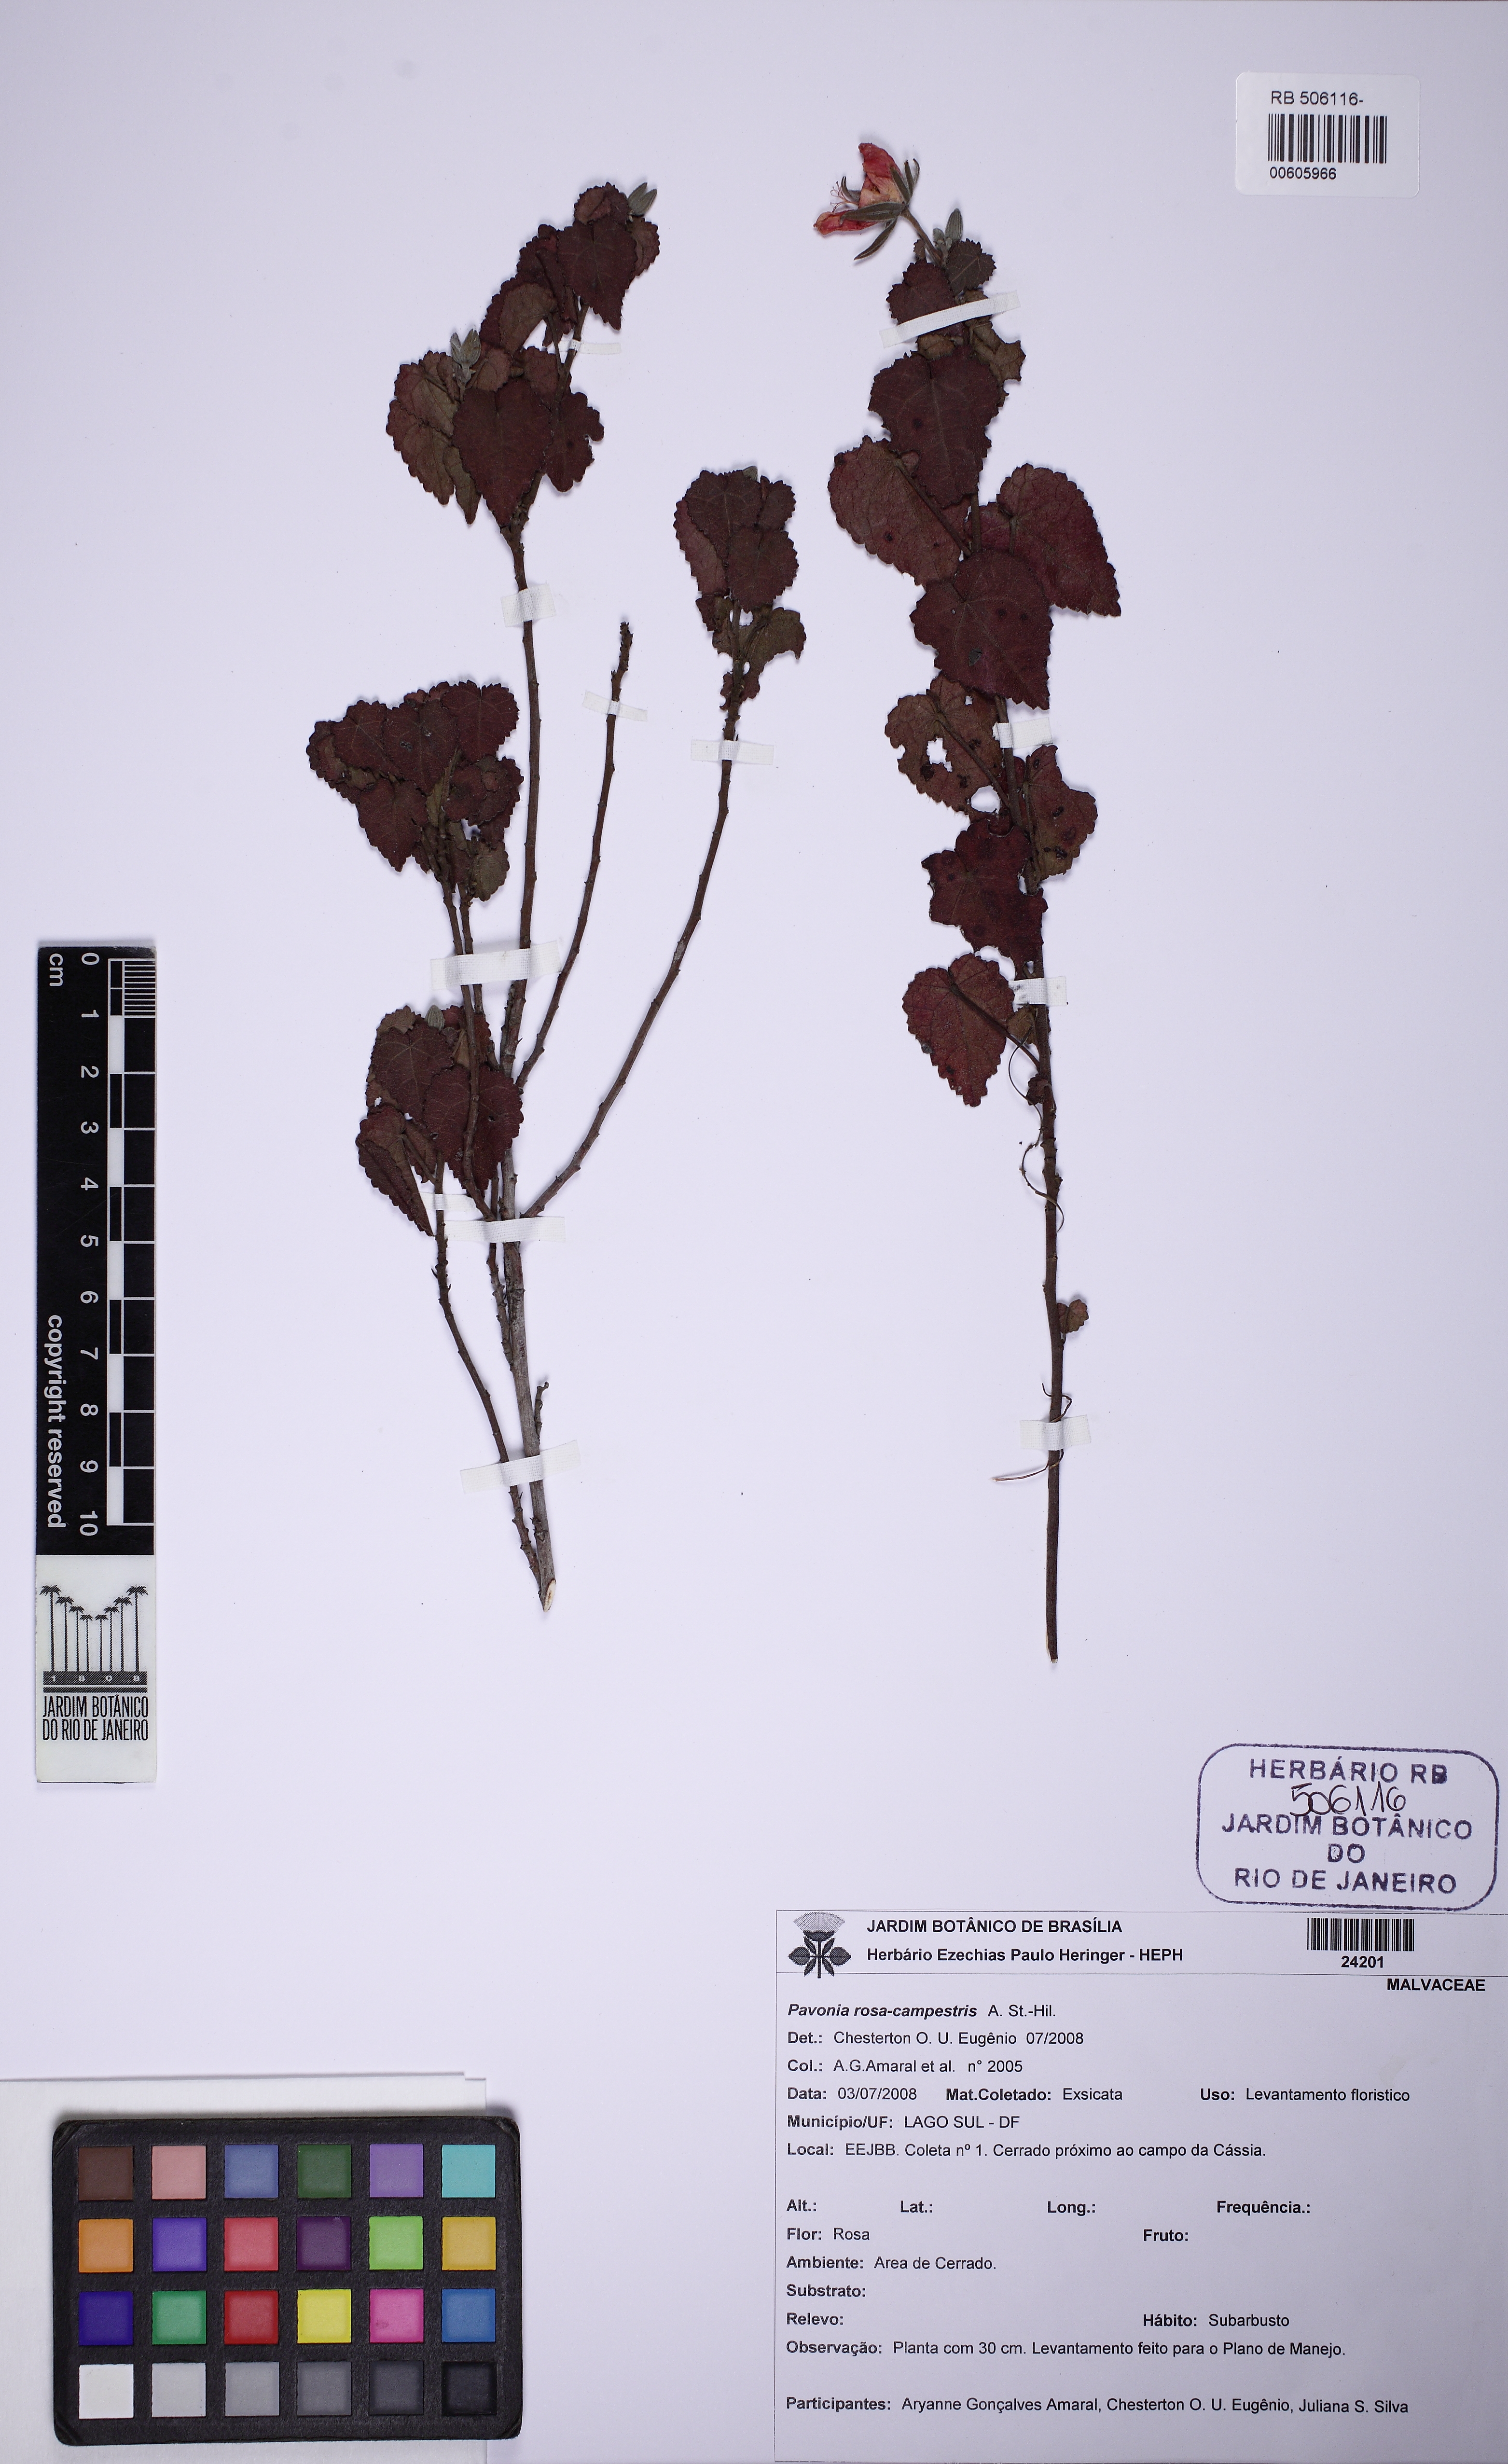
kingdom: Plantae
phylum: Tracheophyta
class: Magnoliopsida
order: Malvales
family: Malvaceae
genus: Pavonia
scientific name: Pavonia rosa-campestris
